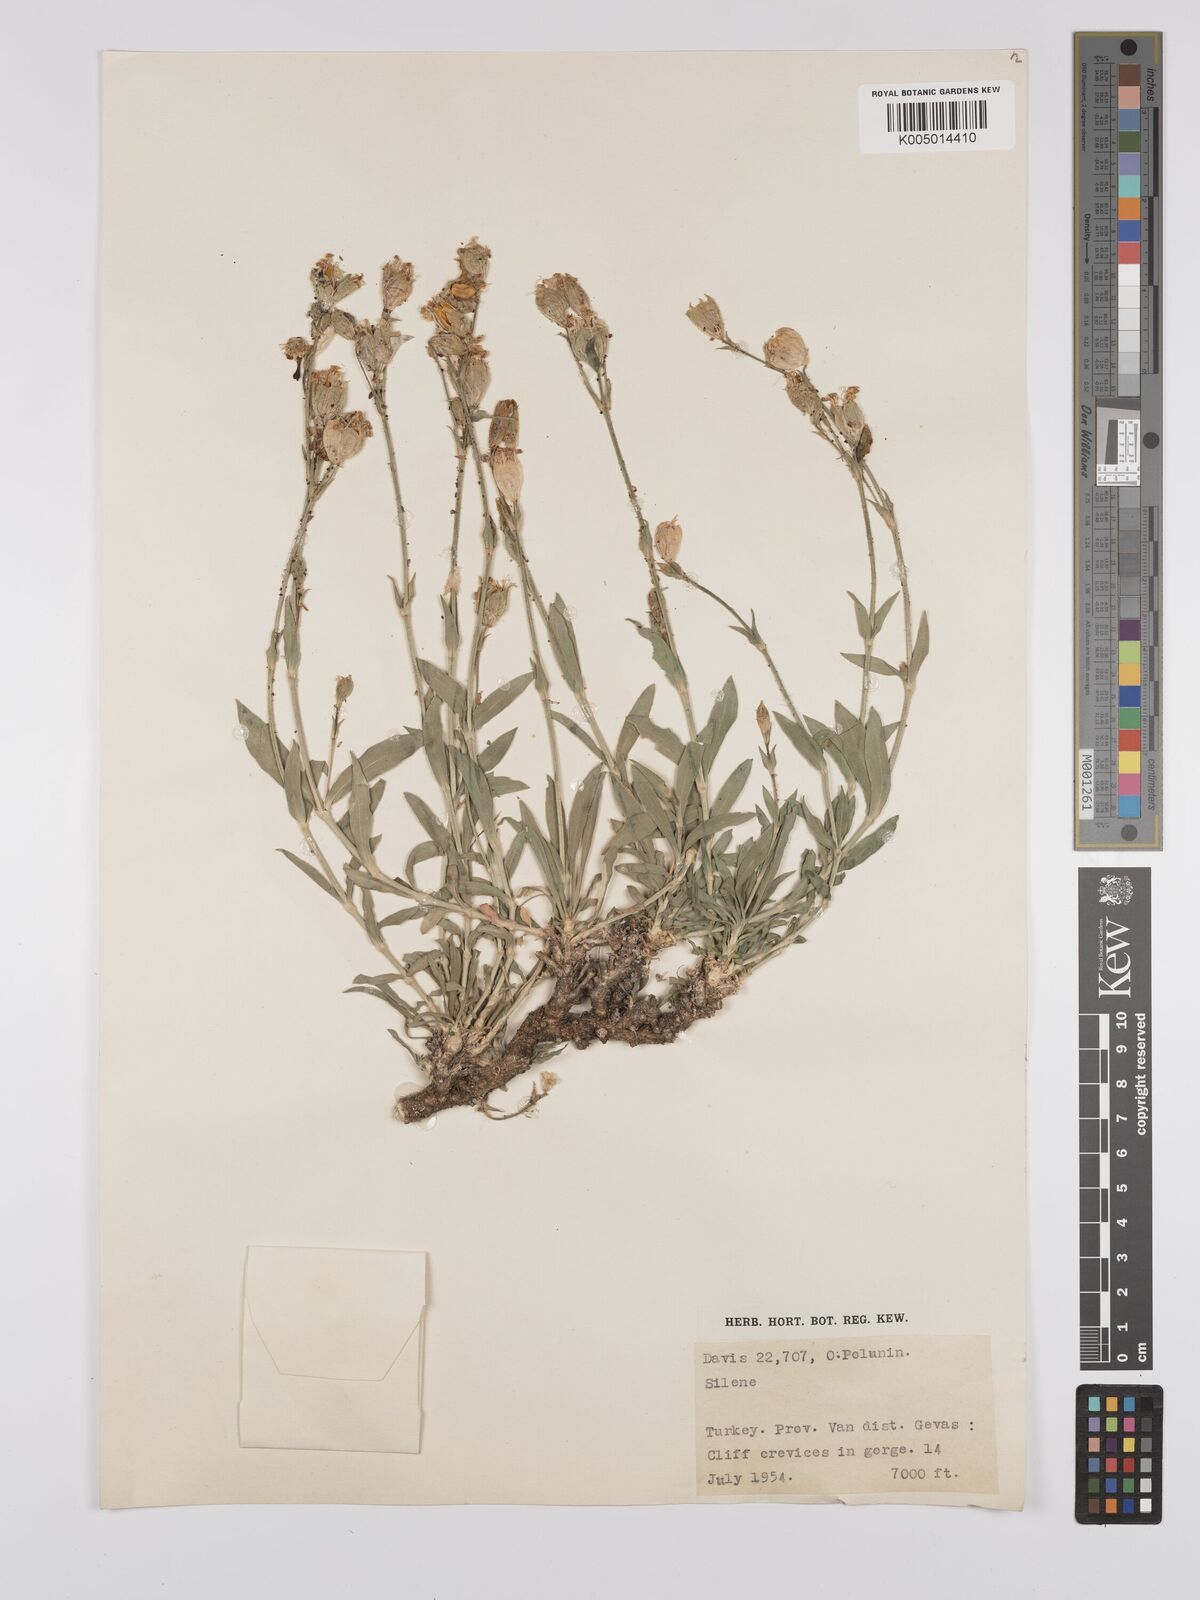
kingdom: Plantae
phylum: Tracheophyta
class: Magnoliopsida
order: Caryophyllales
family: Caryophyllaceae
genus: Silene
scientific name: Silene
